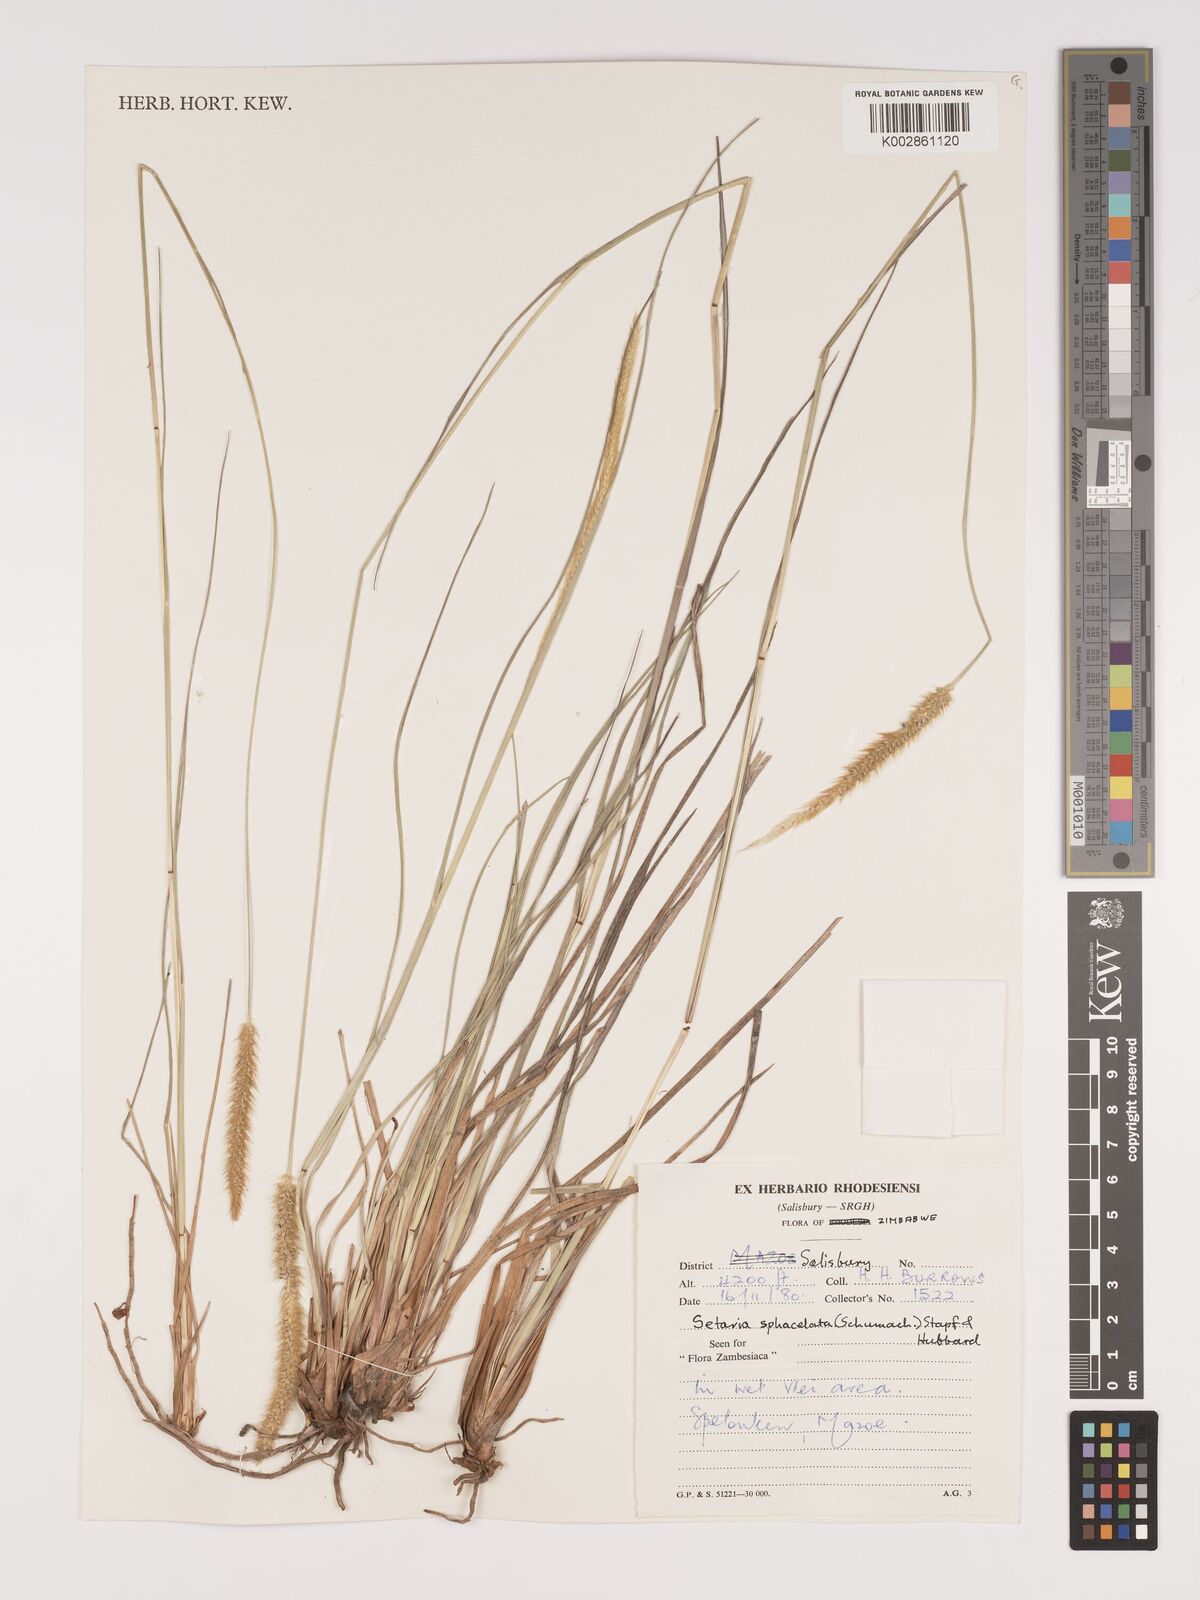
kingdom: Plantae
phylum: Tracheophyta
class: Liliopsida
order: Poales
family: Poaceae
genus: Setaria
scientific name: Setaria sphacelata
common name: African bristlegrass
